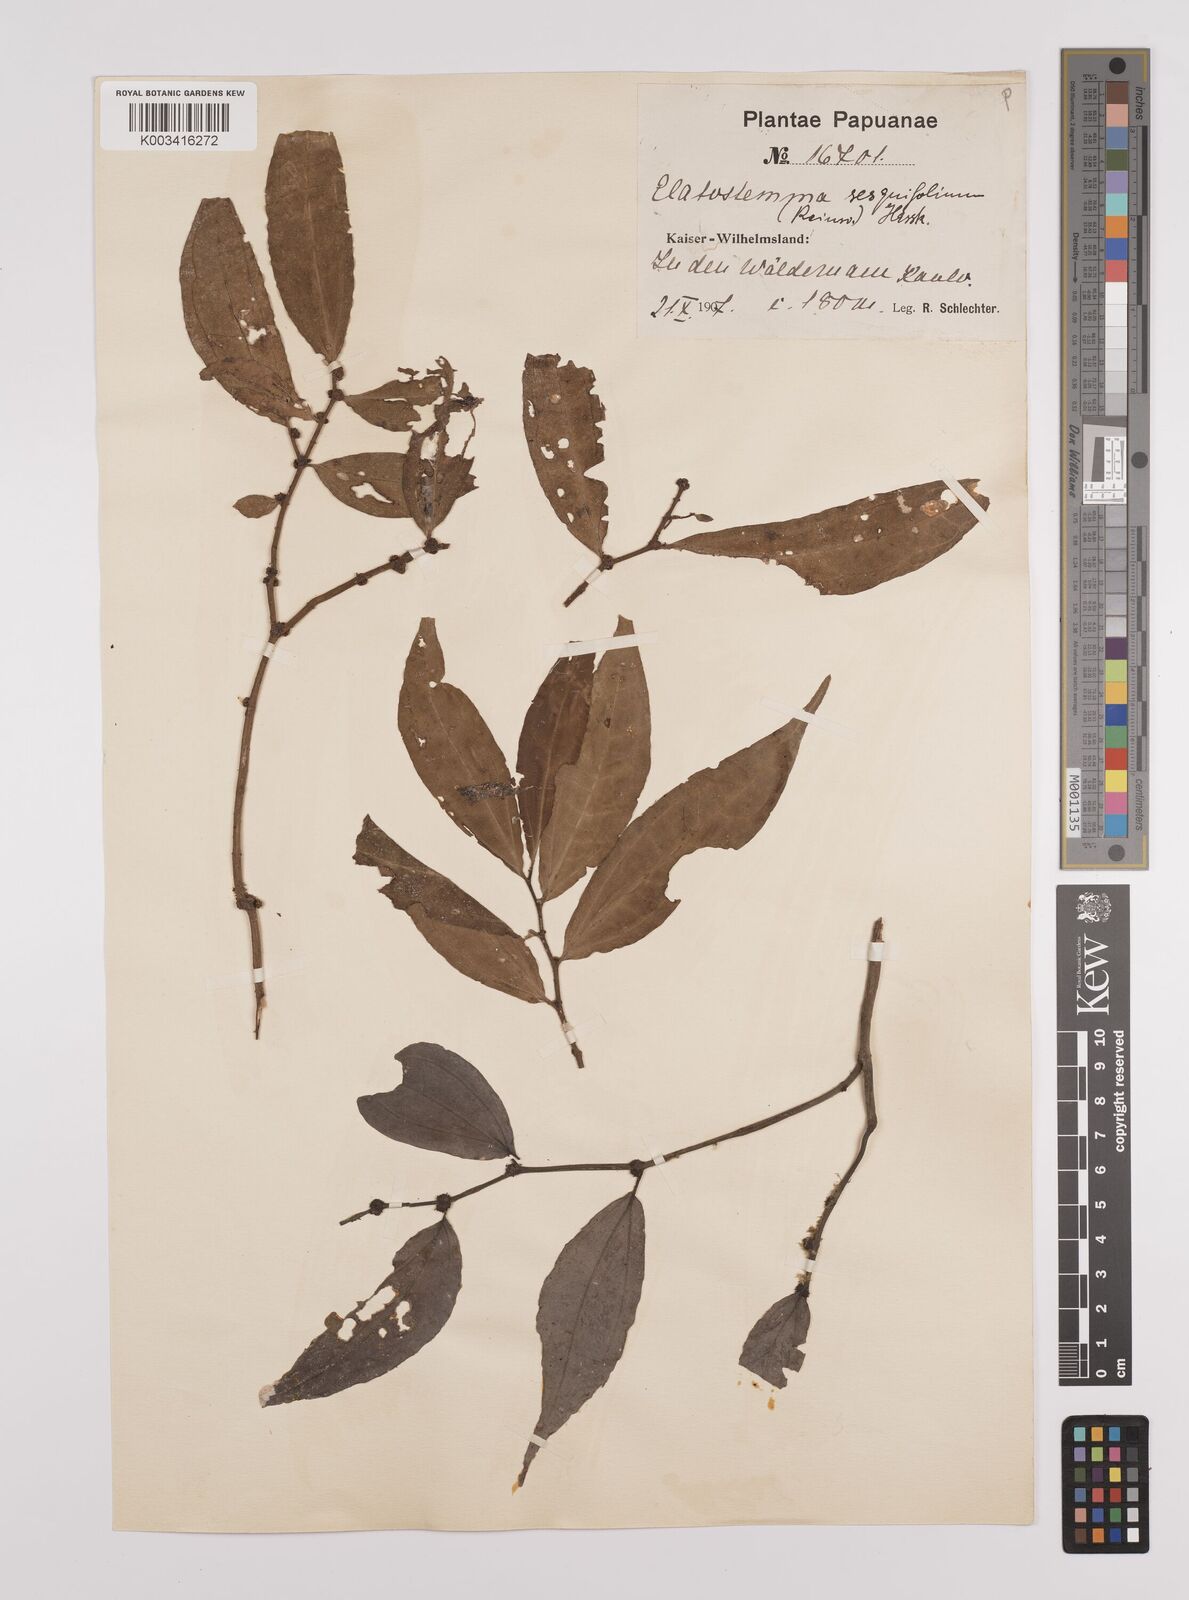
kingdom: Plantae
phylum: Tracheophyta
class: Magnoliopsida
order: Rosales
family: Urticaceae
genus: Elatostema
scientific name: Elatostema integrifolium
